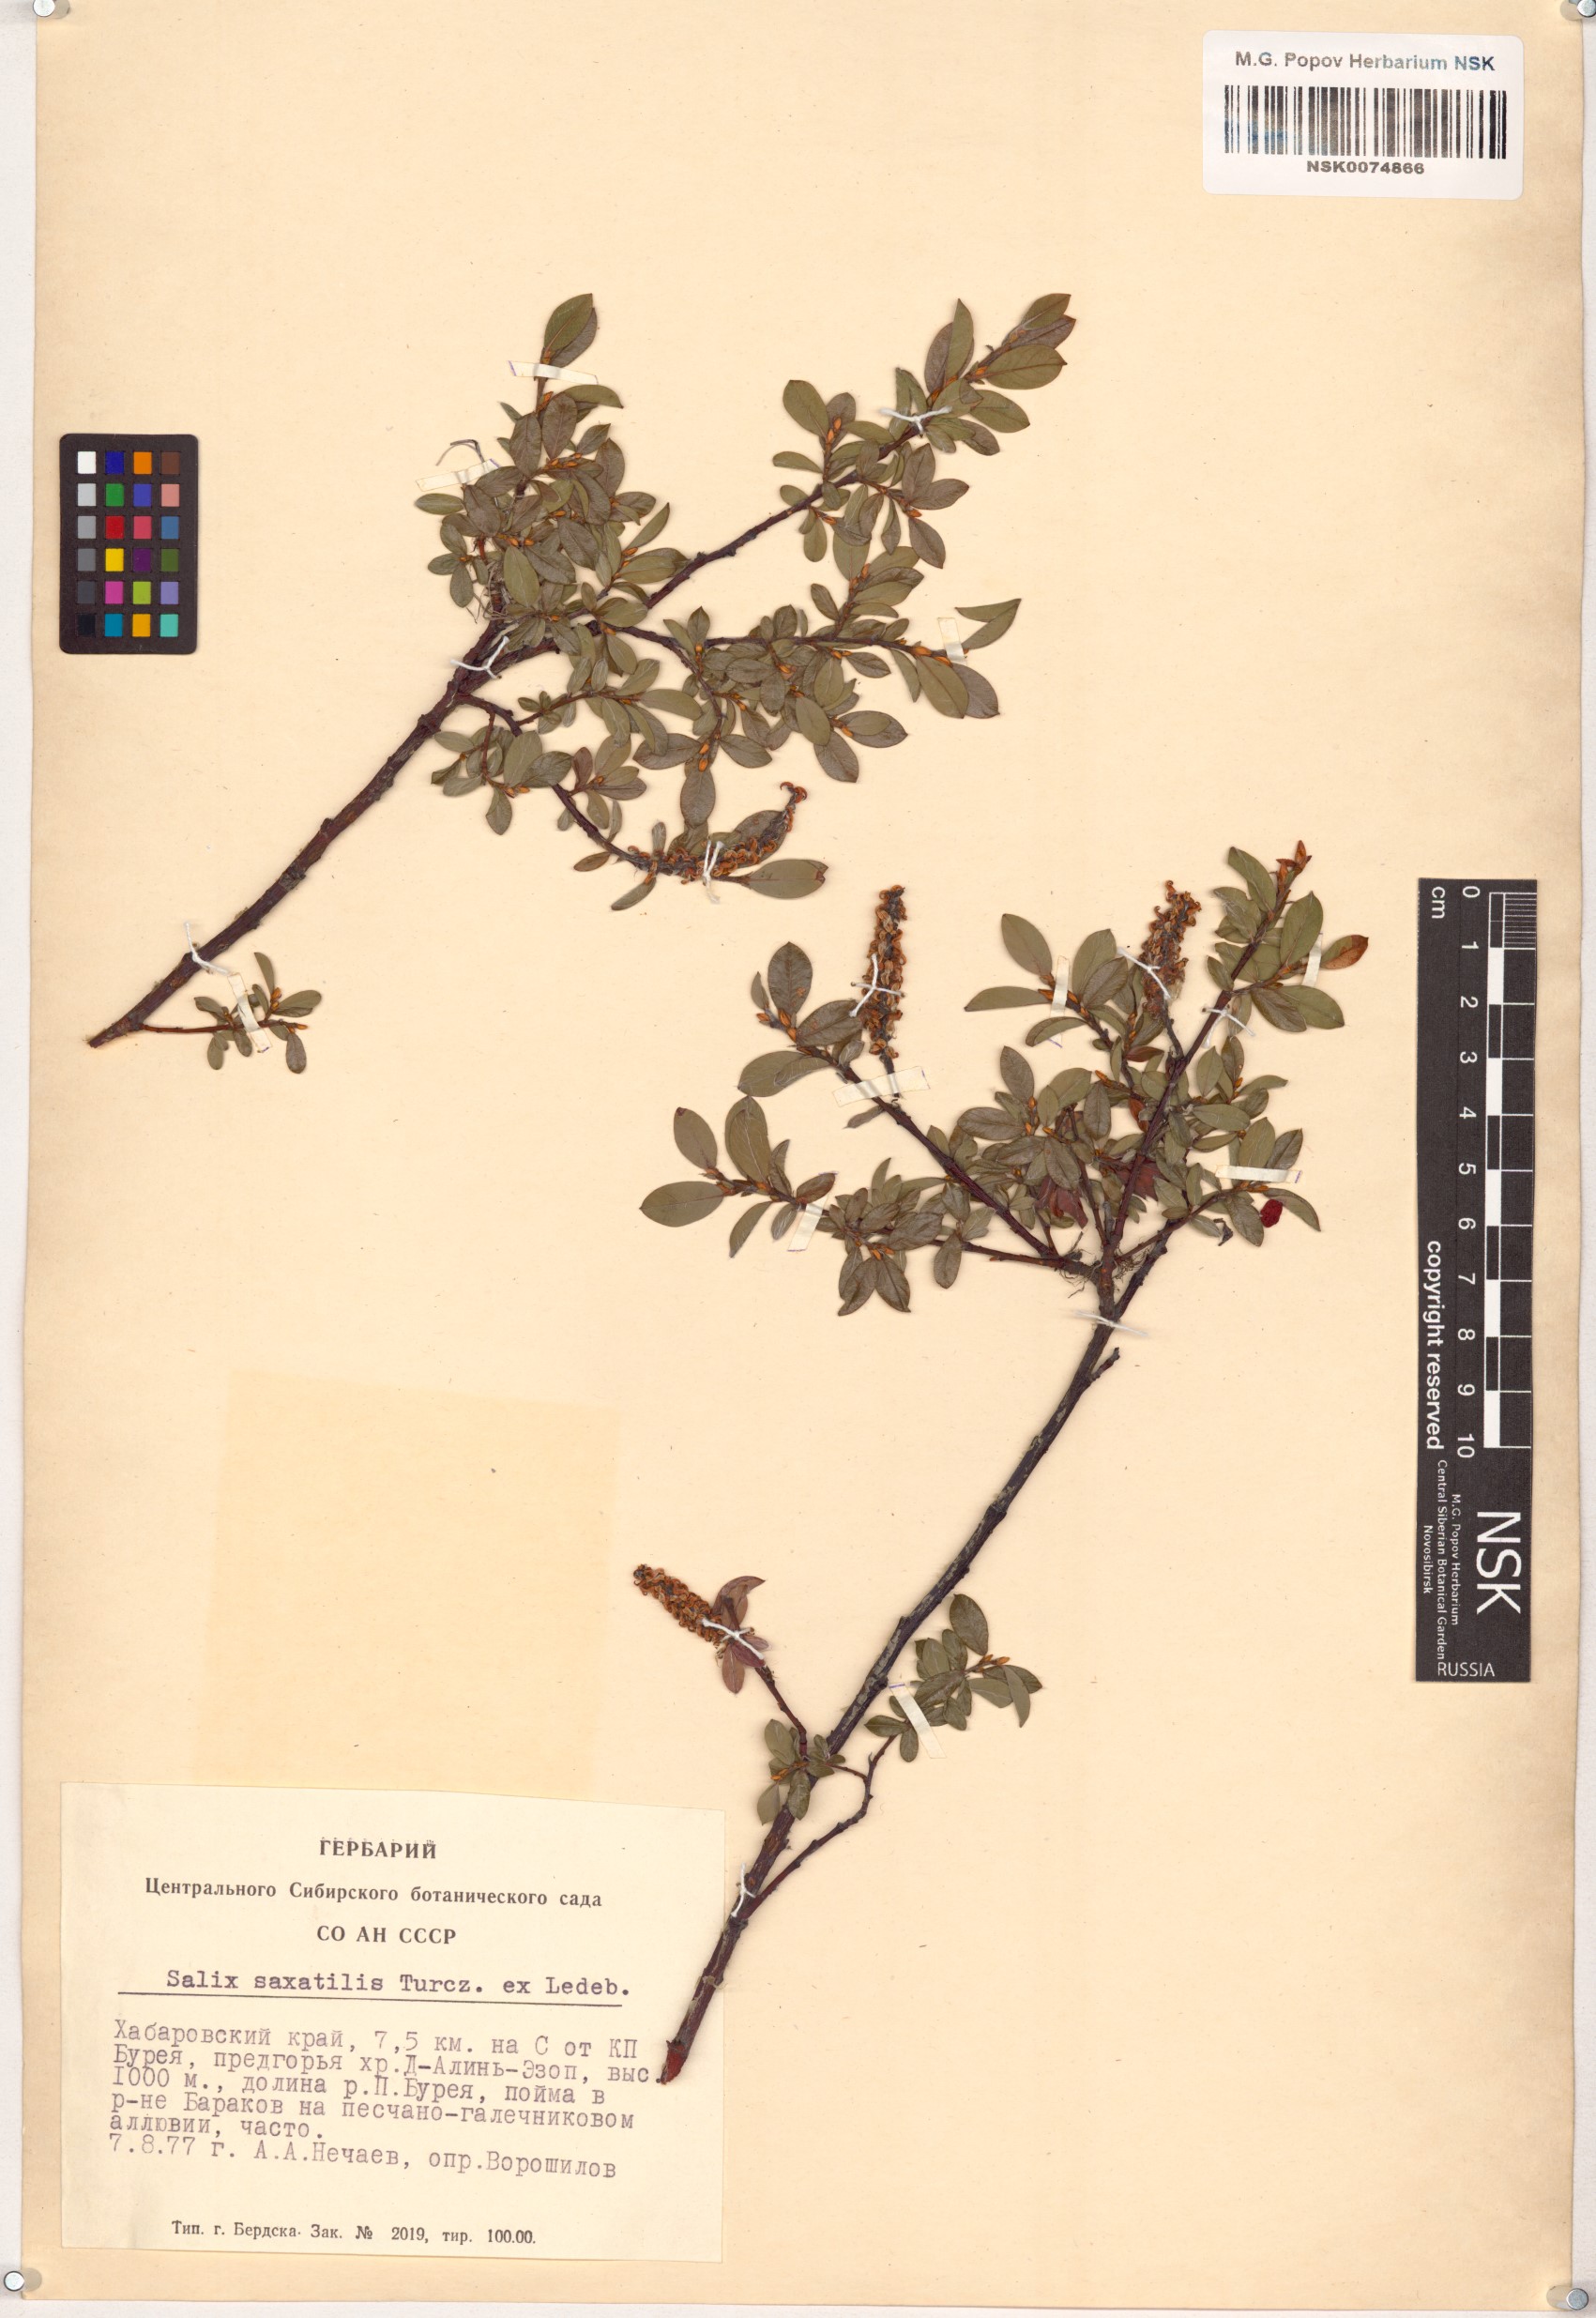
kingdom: Plantae
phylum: Tracheophyta
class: Magnoliopsida
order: Malpighiales
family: Salicaceae
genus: Salix
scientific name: Salix saxatilis
